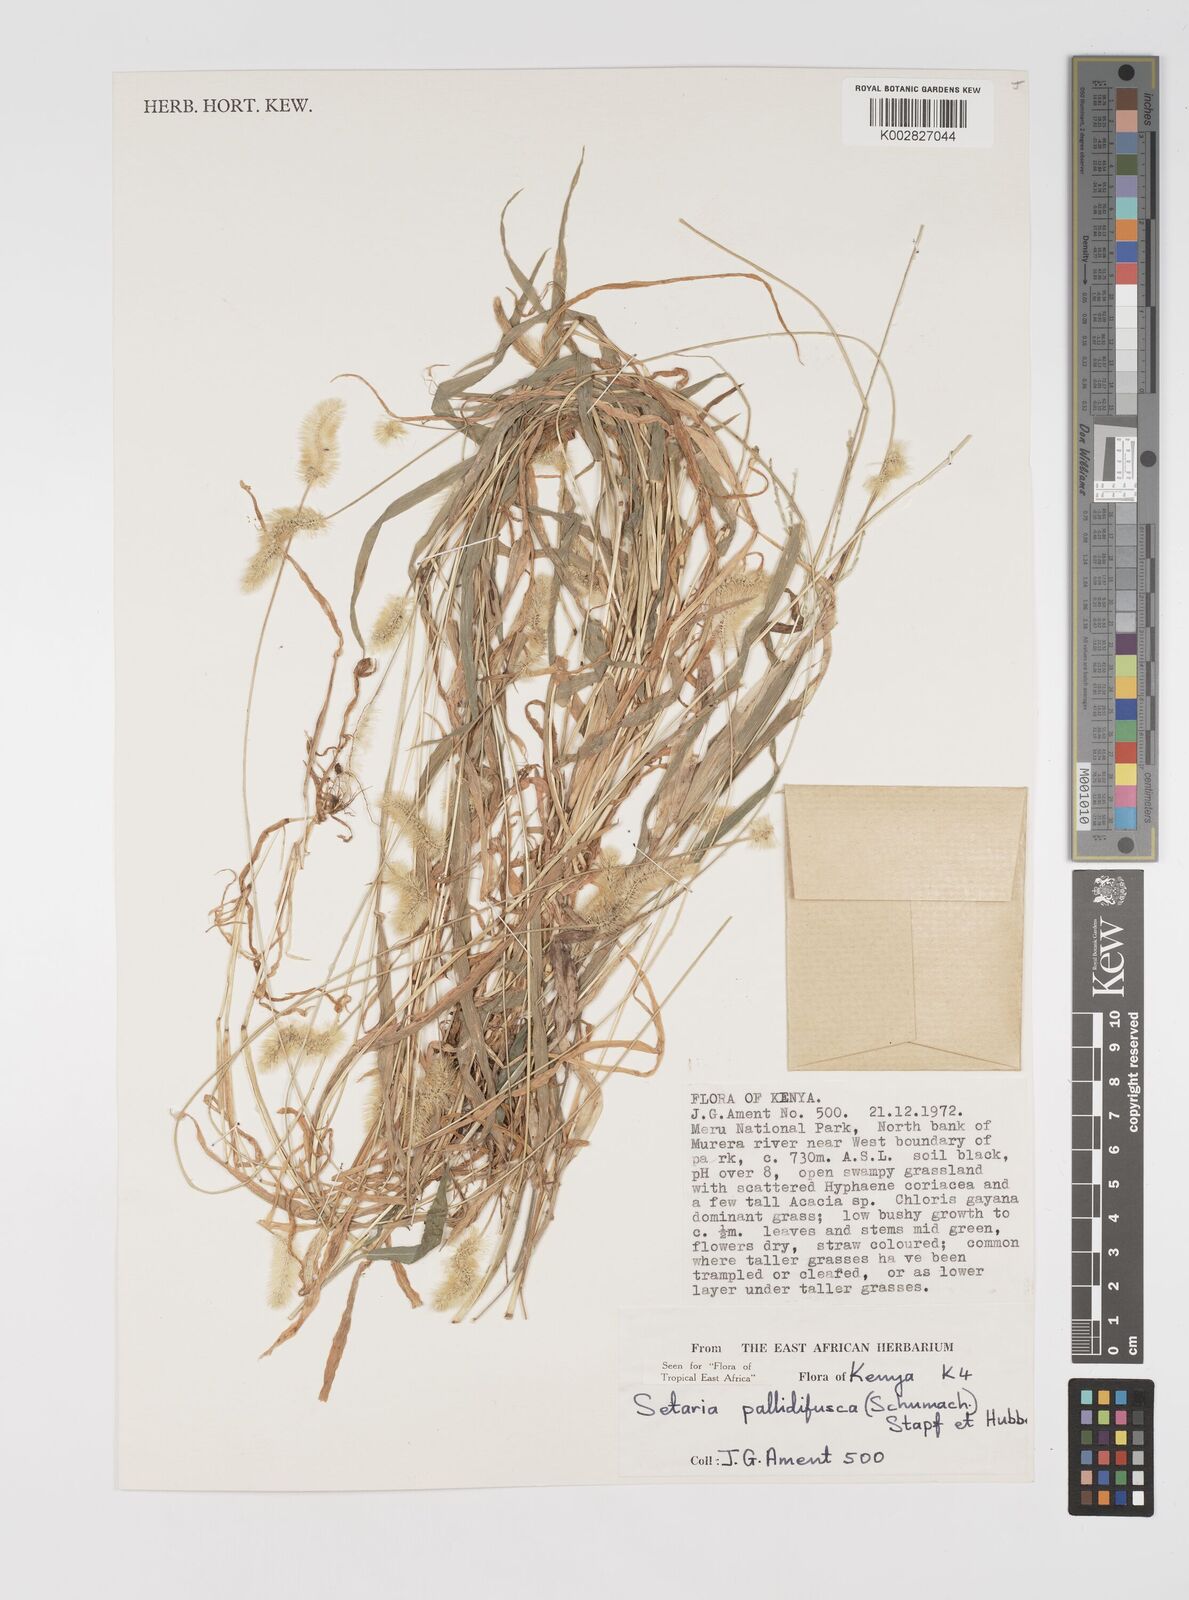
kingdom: Plantae
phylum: Tracheophyta
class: Liliopsida
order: Poales
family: Poaceae
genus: Setaria
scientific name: Setaria pumila
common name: Yellow bristle-grass
